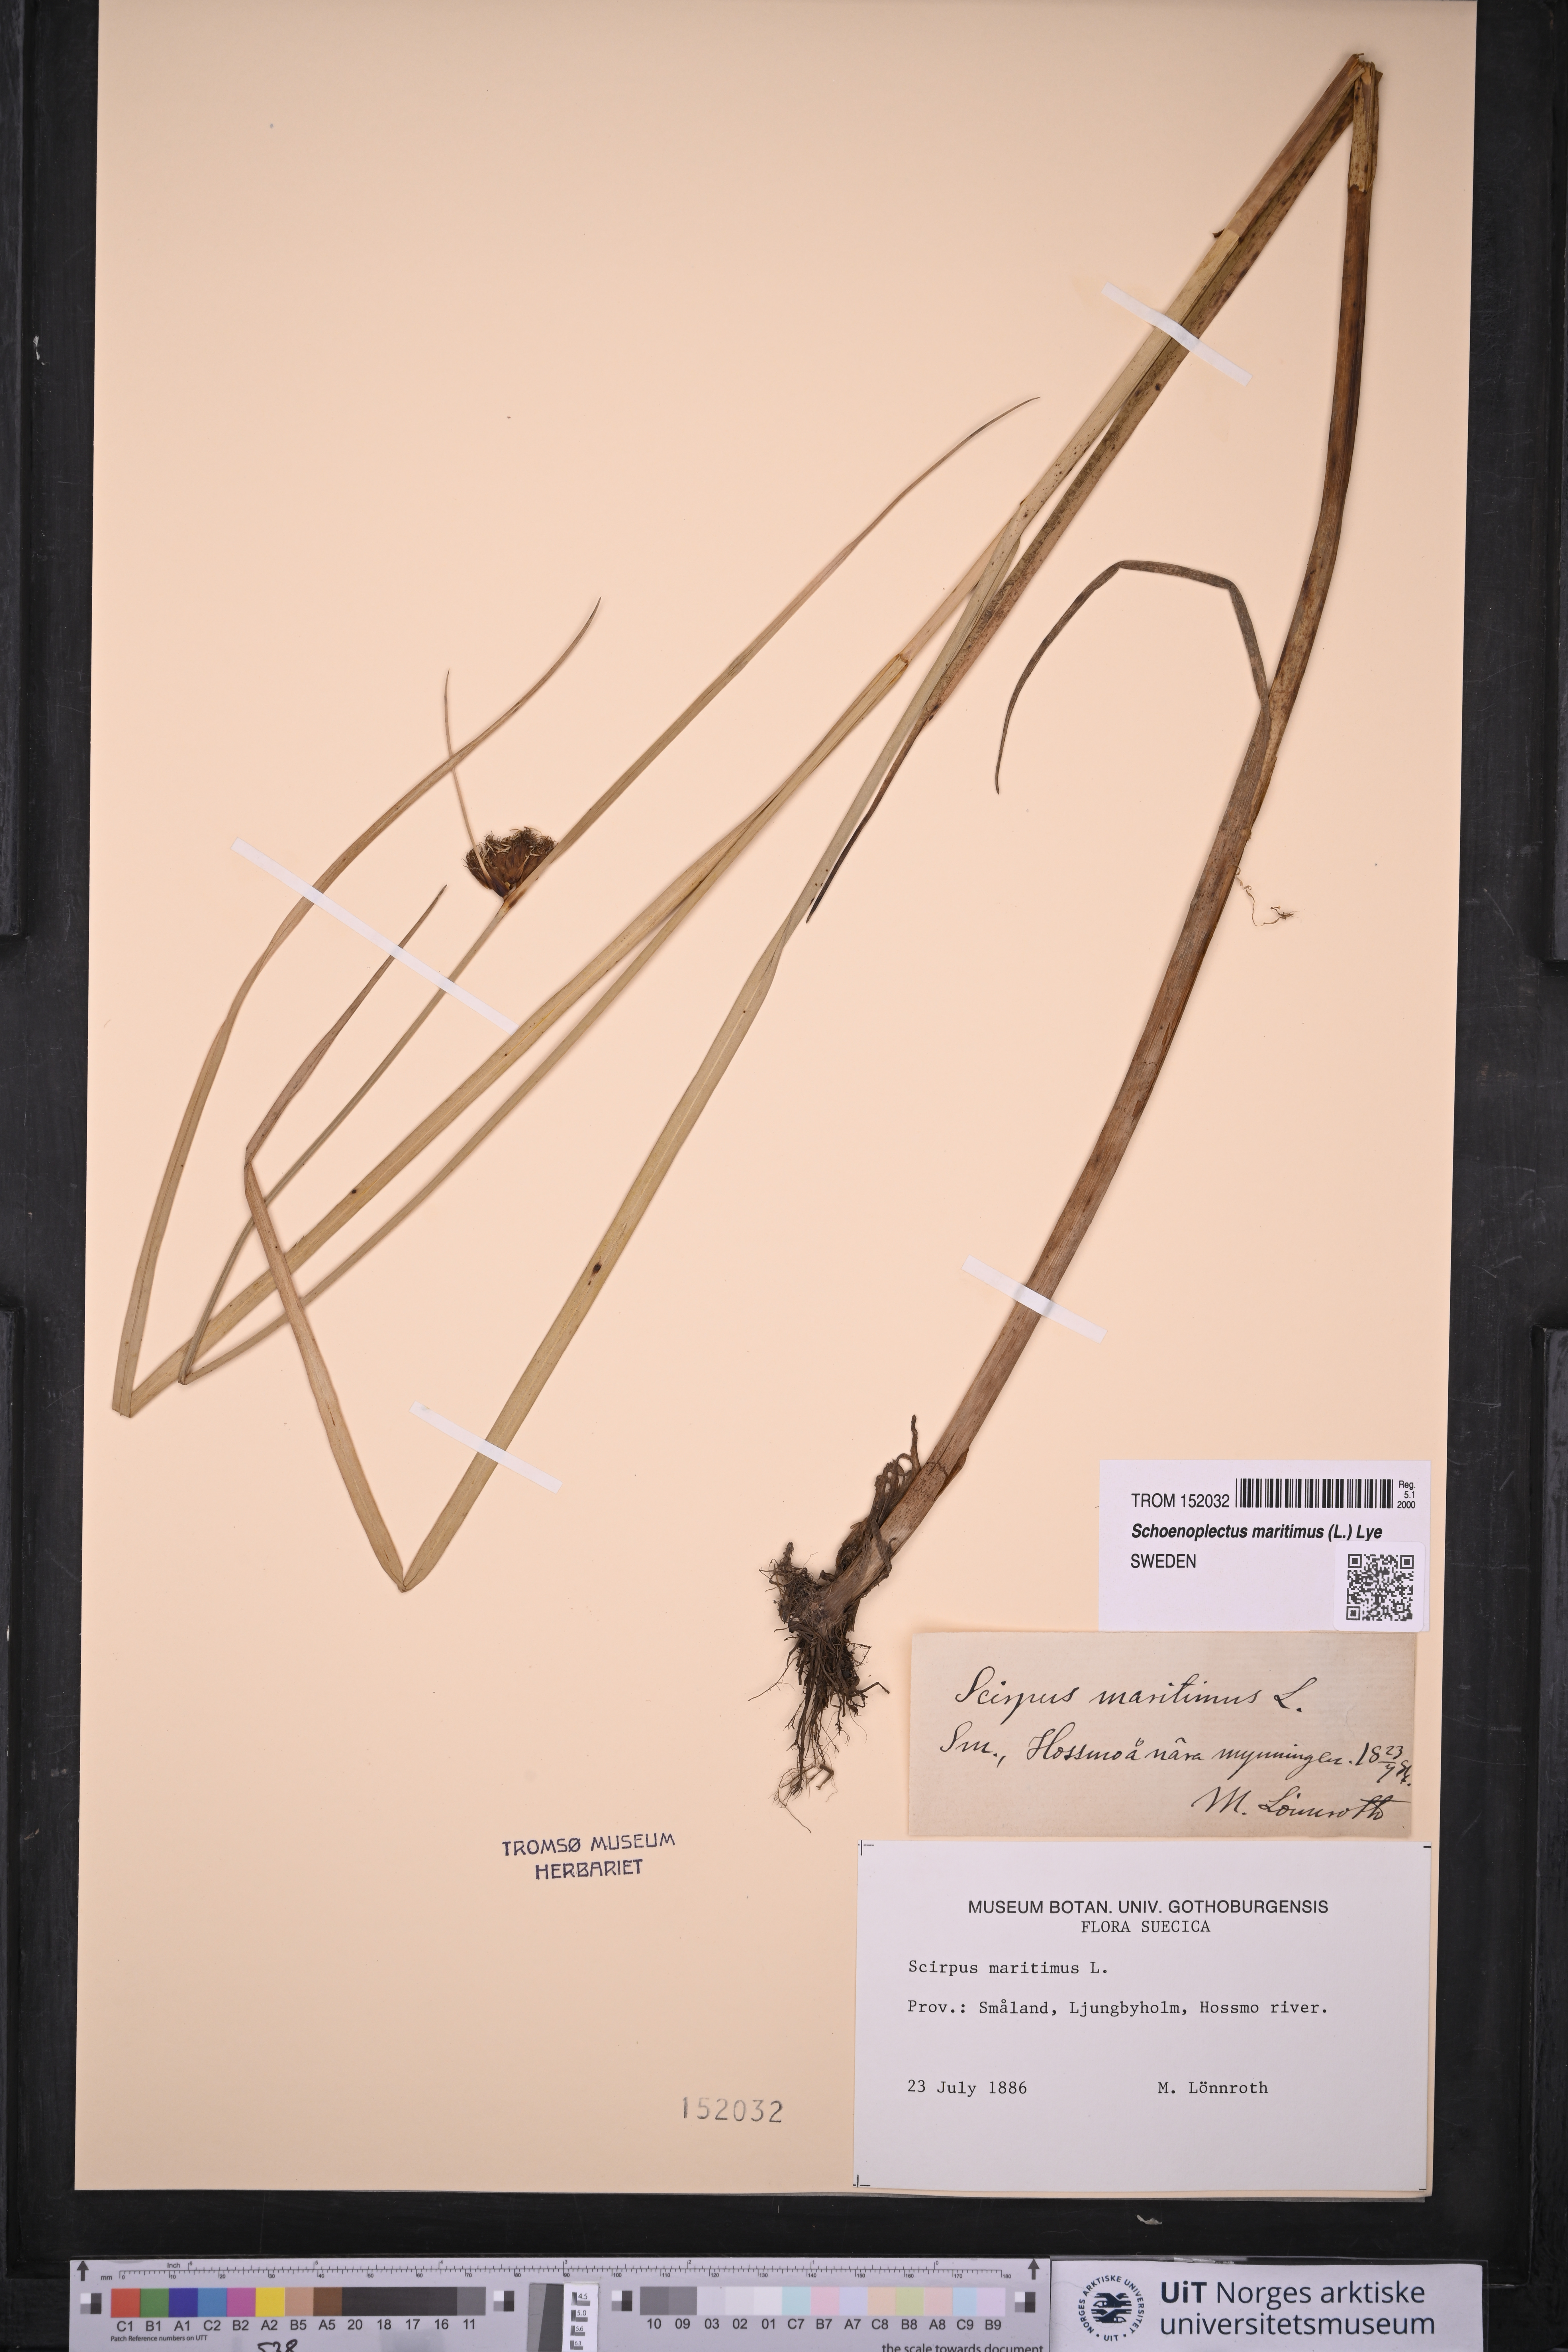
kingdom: Plantae
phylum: Tracheophyta
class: Liliopsida
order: Poales
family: Cyperaceae
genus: Bolboschoenus
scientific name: Bolboschoenus maritimus
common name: Sea club-rush
